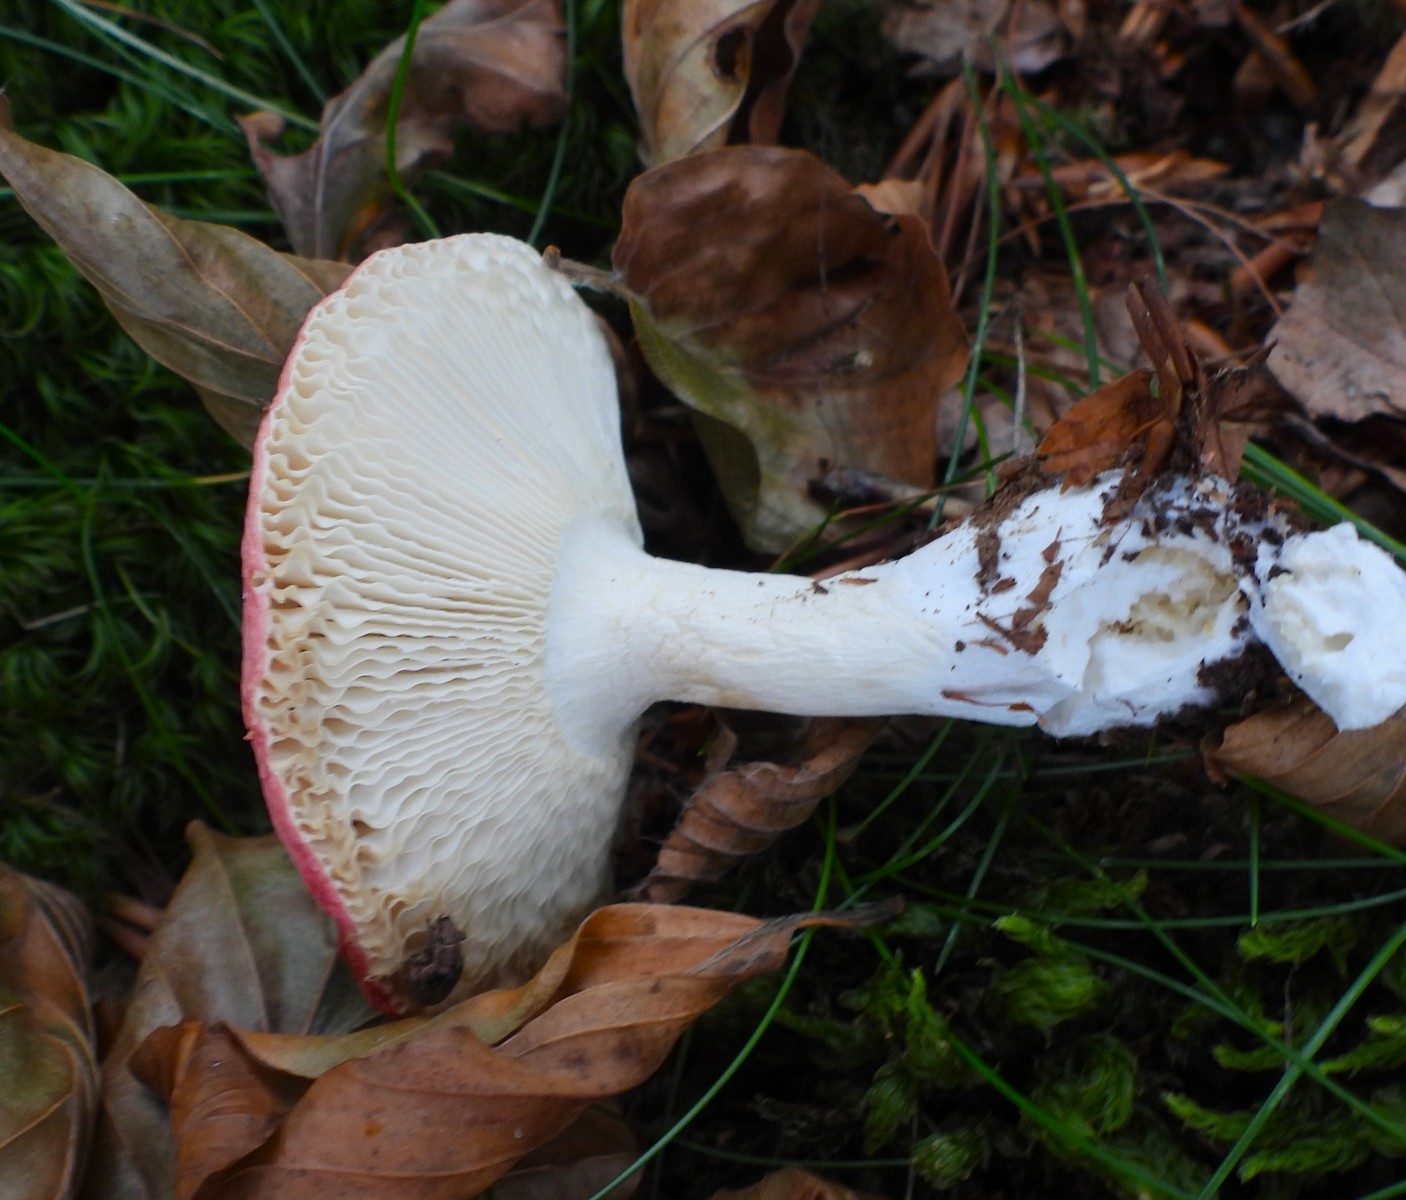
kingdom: Fungi
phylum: Basidiomycota
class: Agaricomycetes
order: Russulales
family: Russulaceae
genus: Russula
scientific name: Russula rosea
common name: fastkødet skørhat
